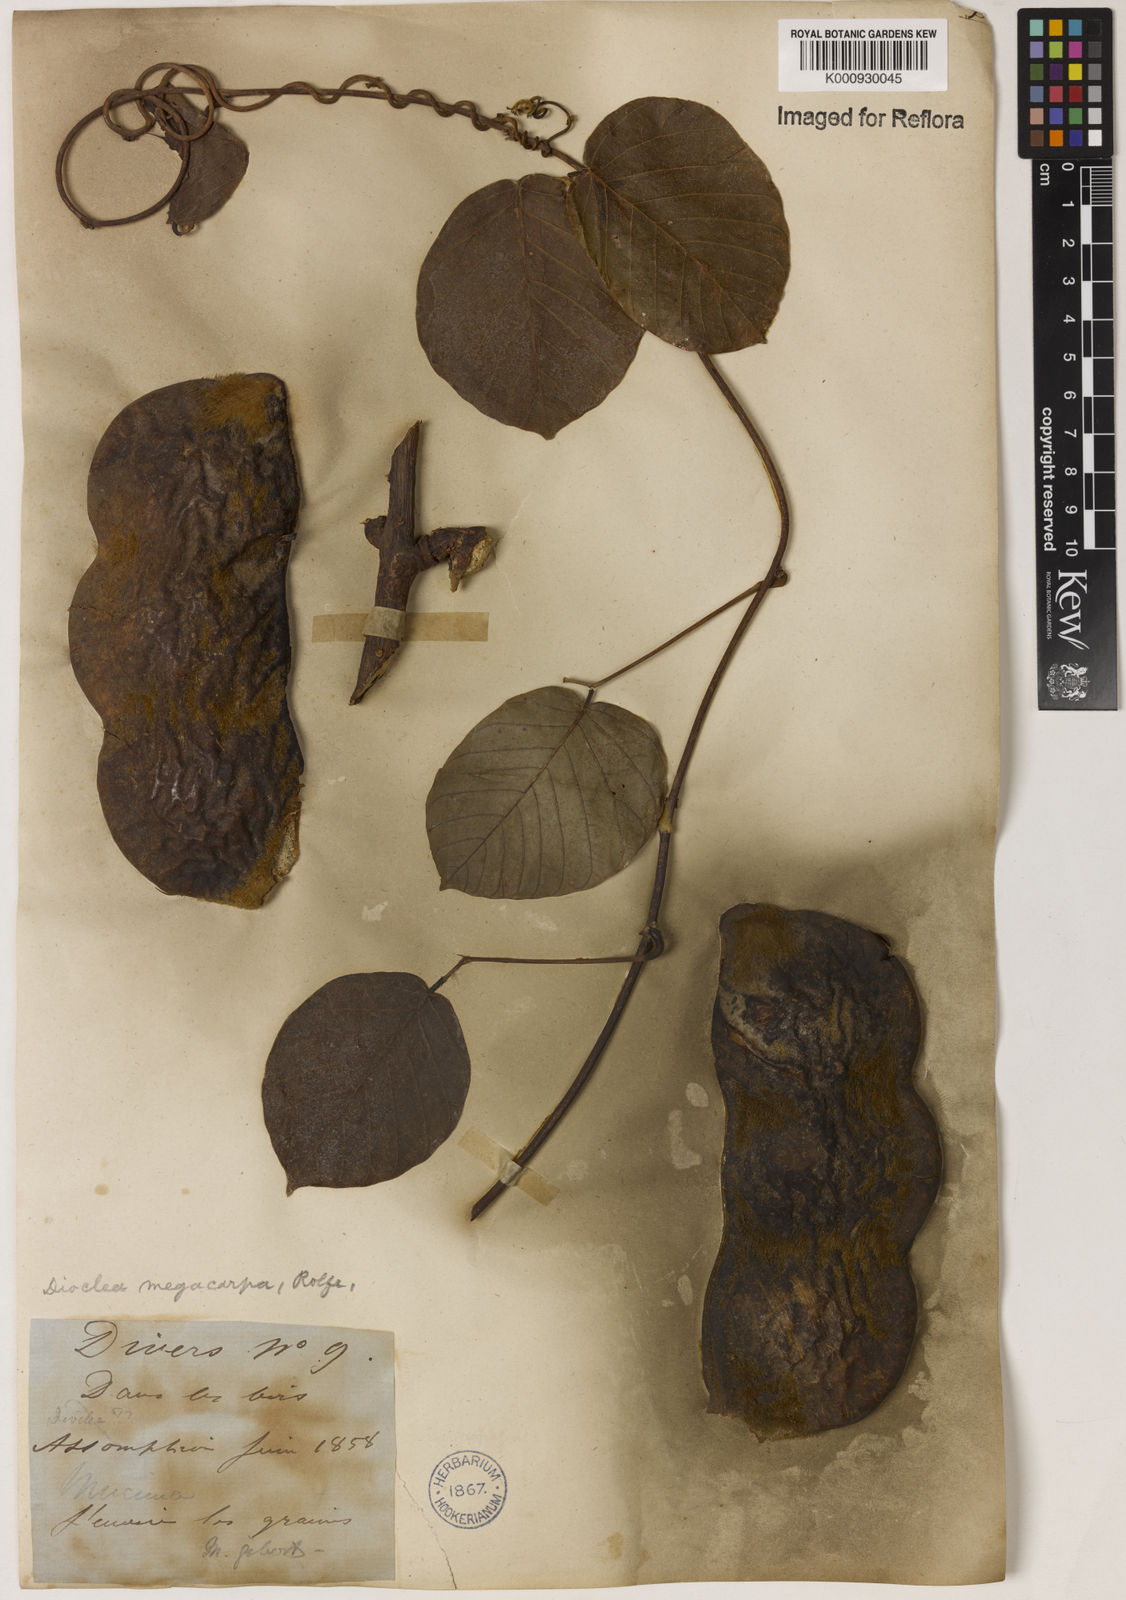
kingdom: Plantae
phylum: Tracheophyta
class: Magnoliopsida
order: Fabales
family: Fabaceae
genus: Macropsychanthus
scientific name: Macropsychanthus megacarpus
